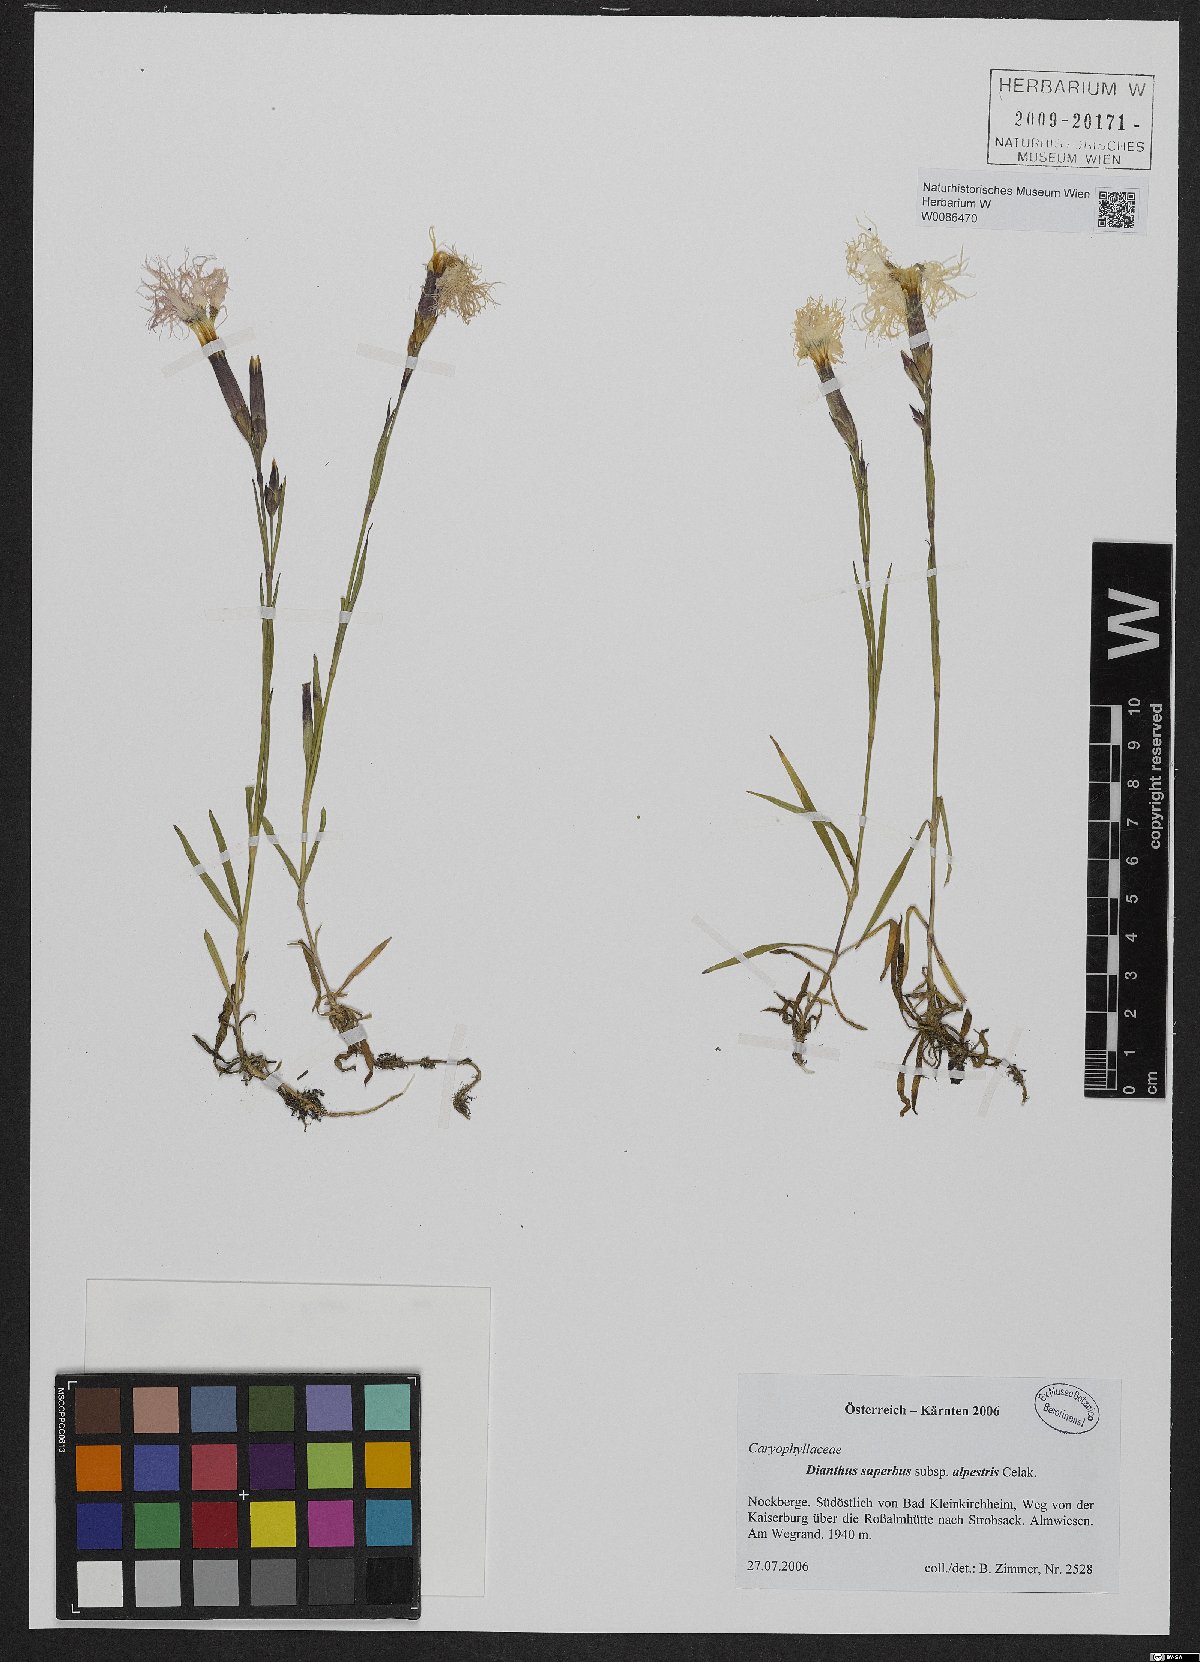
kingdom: Plantae
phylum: Tracheophyta
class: Magnoliopsida
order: Caryophyllales
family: Caryophyllaceae
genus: Dianthus
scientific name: Dianthus superbus
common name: Fringed pink
